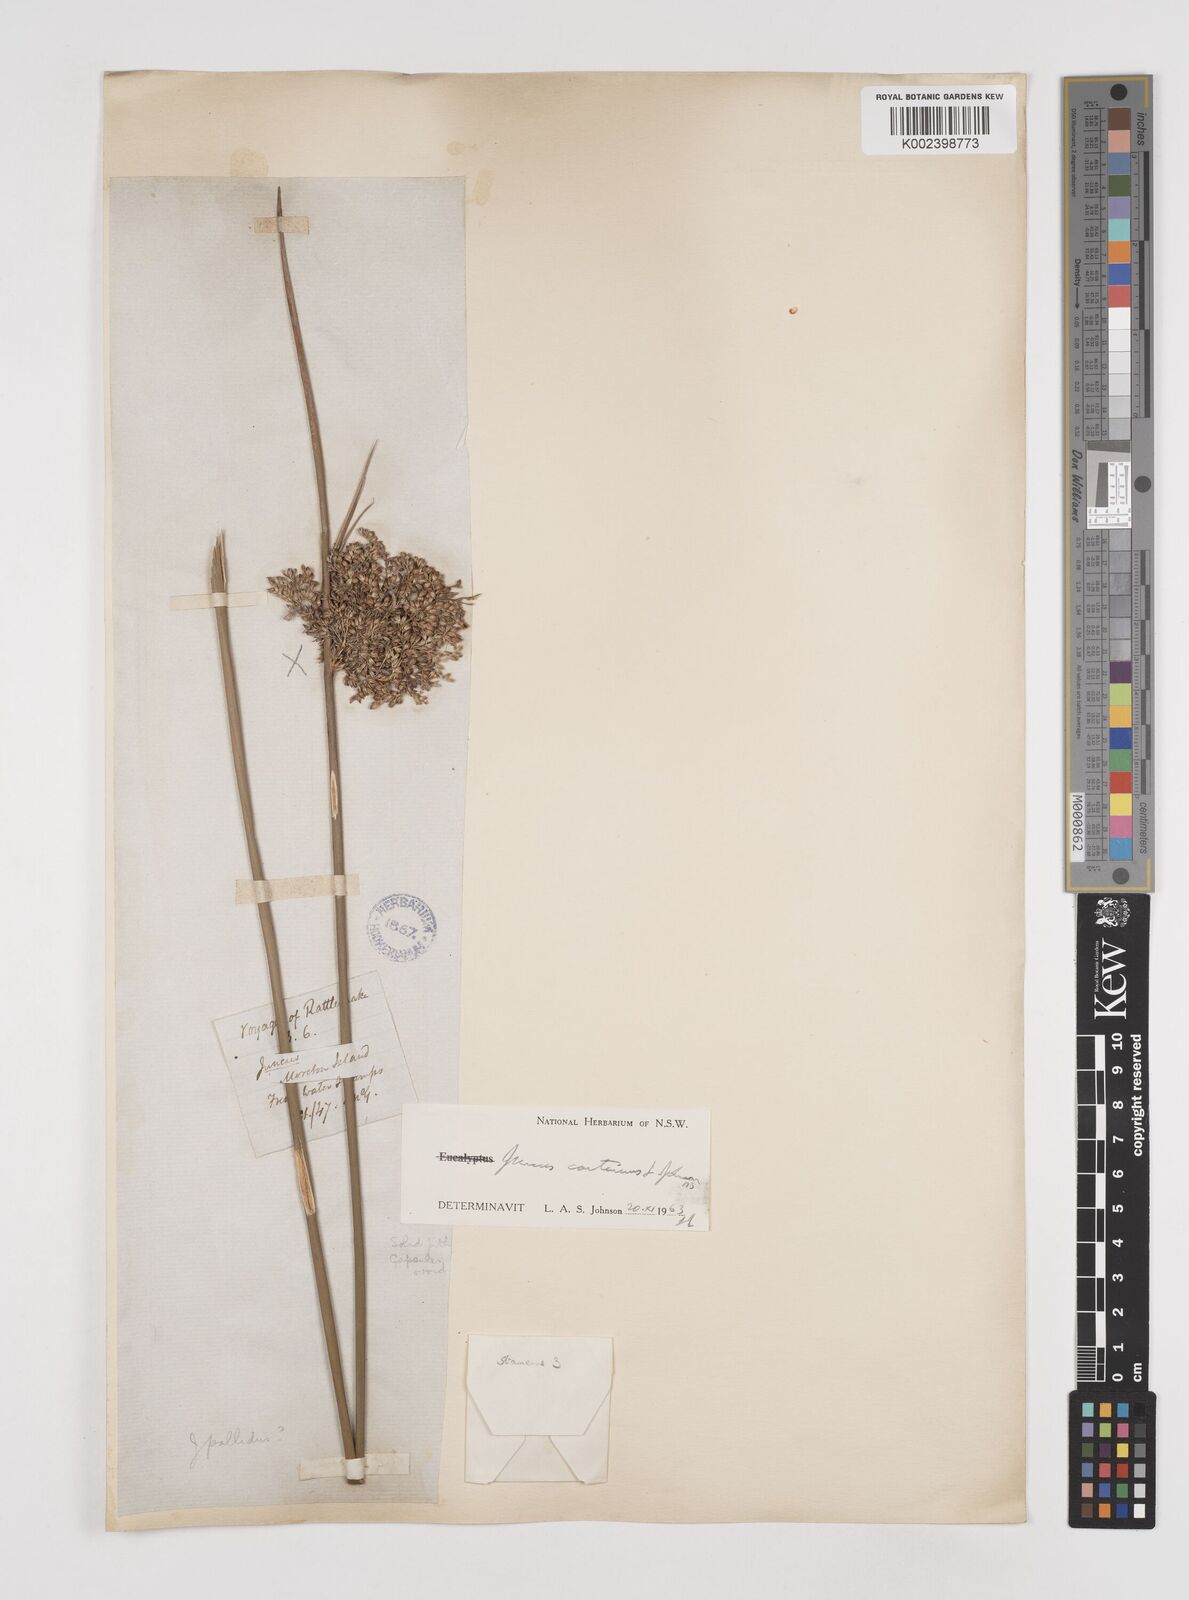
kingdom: Plantae
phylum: Tracheophyta
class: Liliopsida
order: Poales
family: Juncaceae
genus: Juncus
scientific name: Juncus continuus
